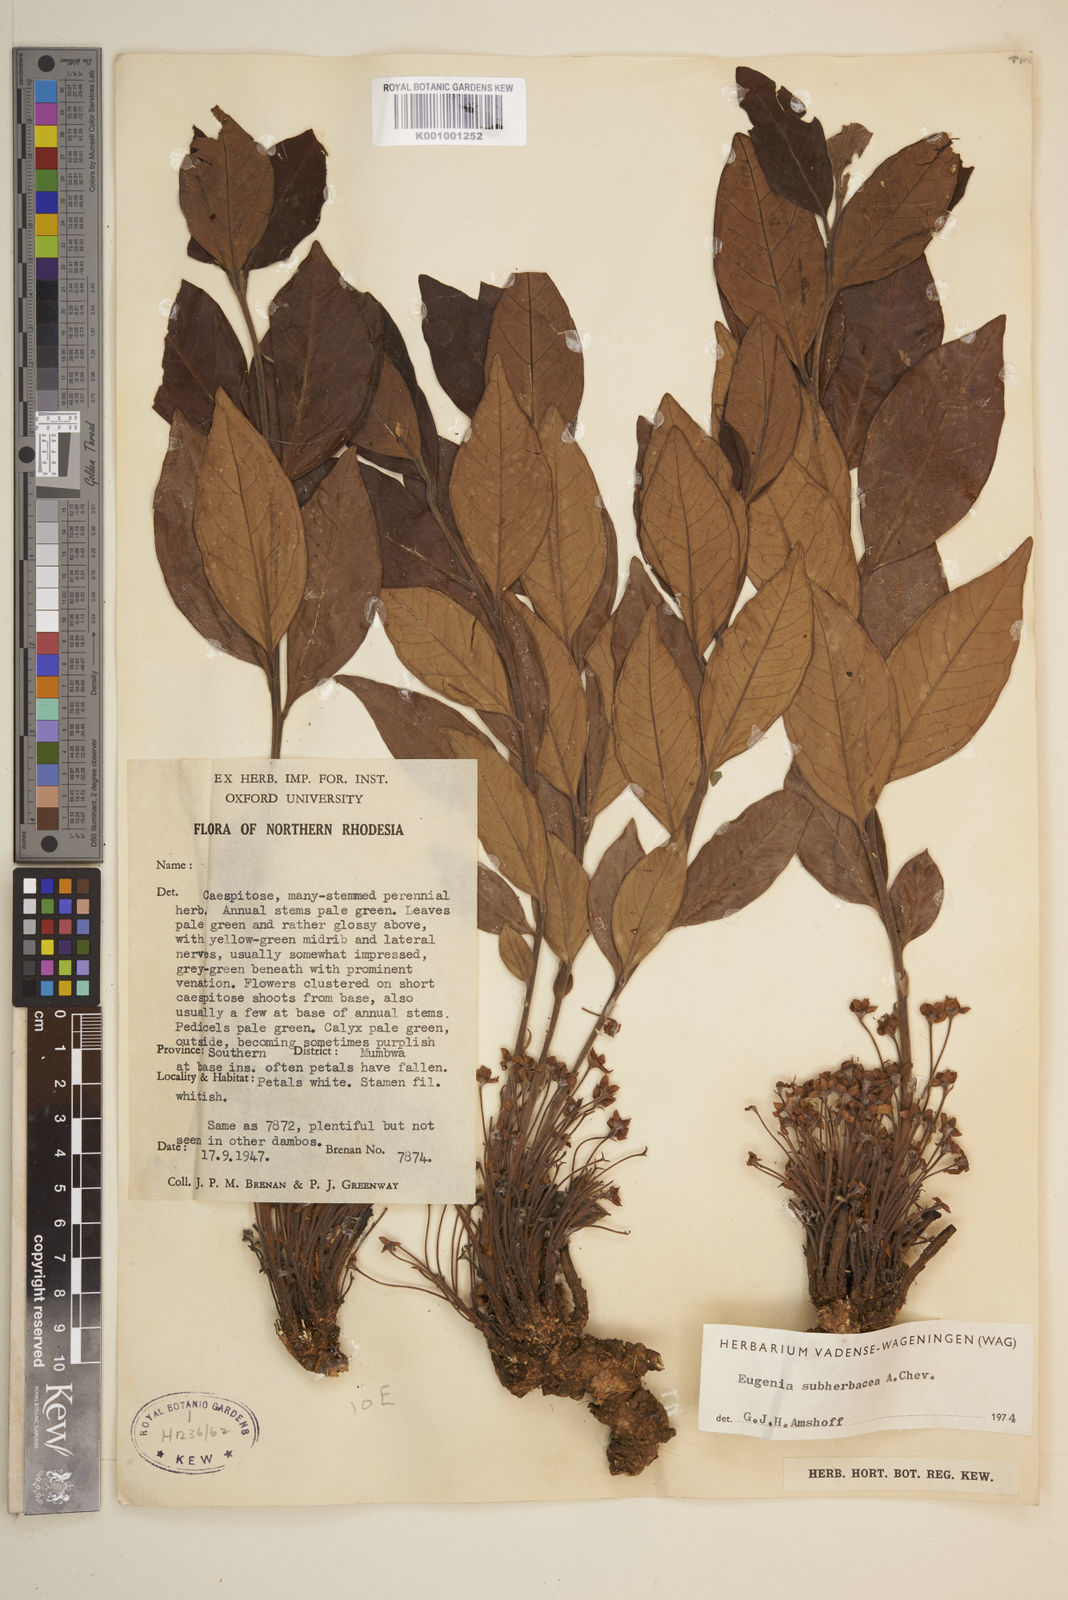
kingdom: Plantae
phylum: Tracheophyta
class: Magnoliopsida
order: Myrtales
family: Myrtaceae
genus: Eugenia
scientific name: Eugenia subherbacea
